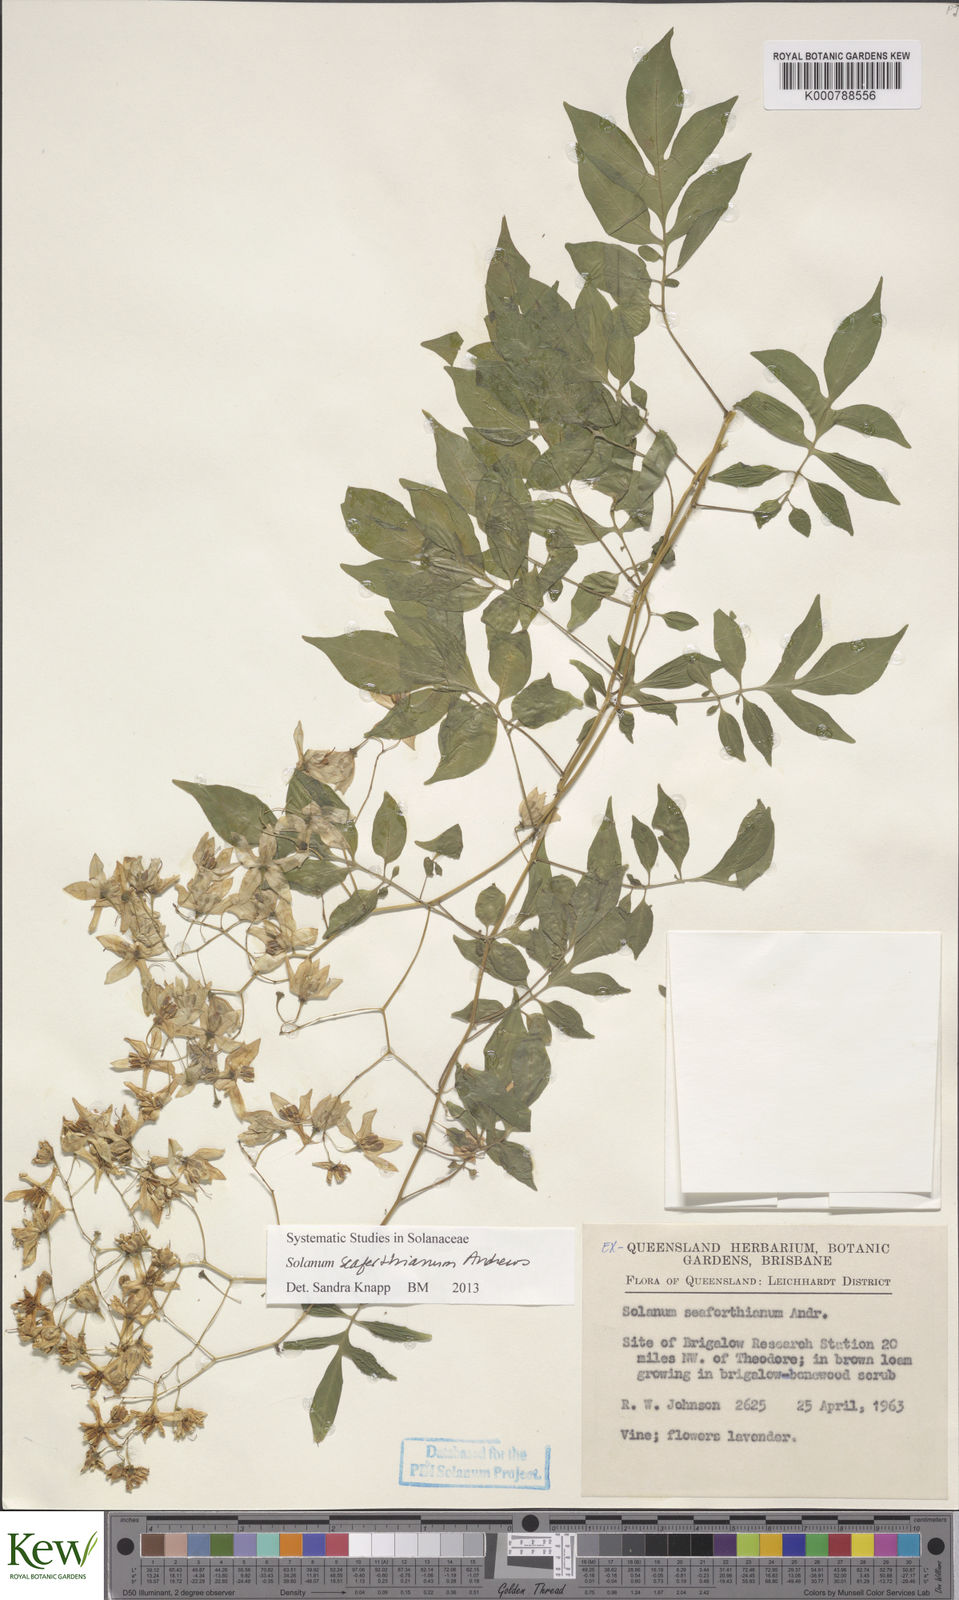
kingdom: Plantae
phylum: Tracheophyta
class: Magnoliopsida
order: Solanales
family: Solanaceae
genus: Solanum
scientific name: Solanum seaforthianum
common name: Brazilian nightshade
